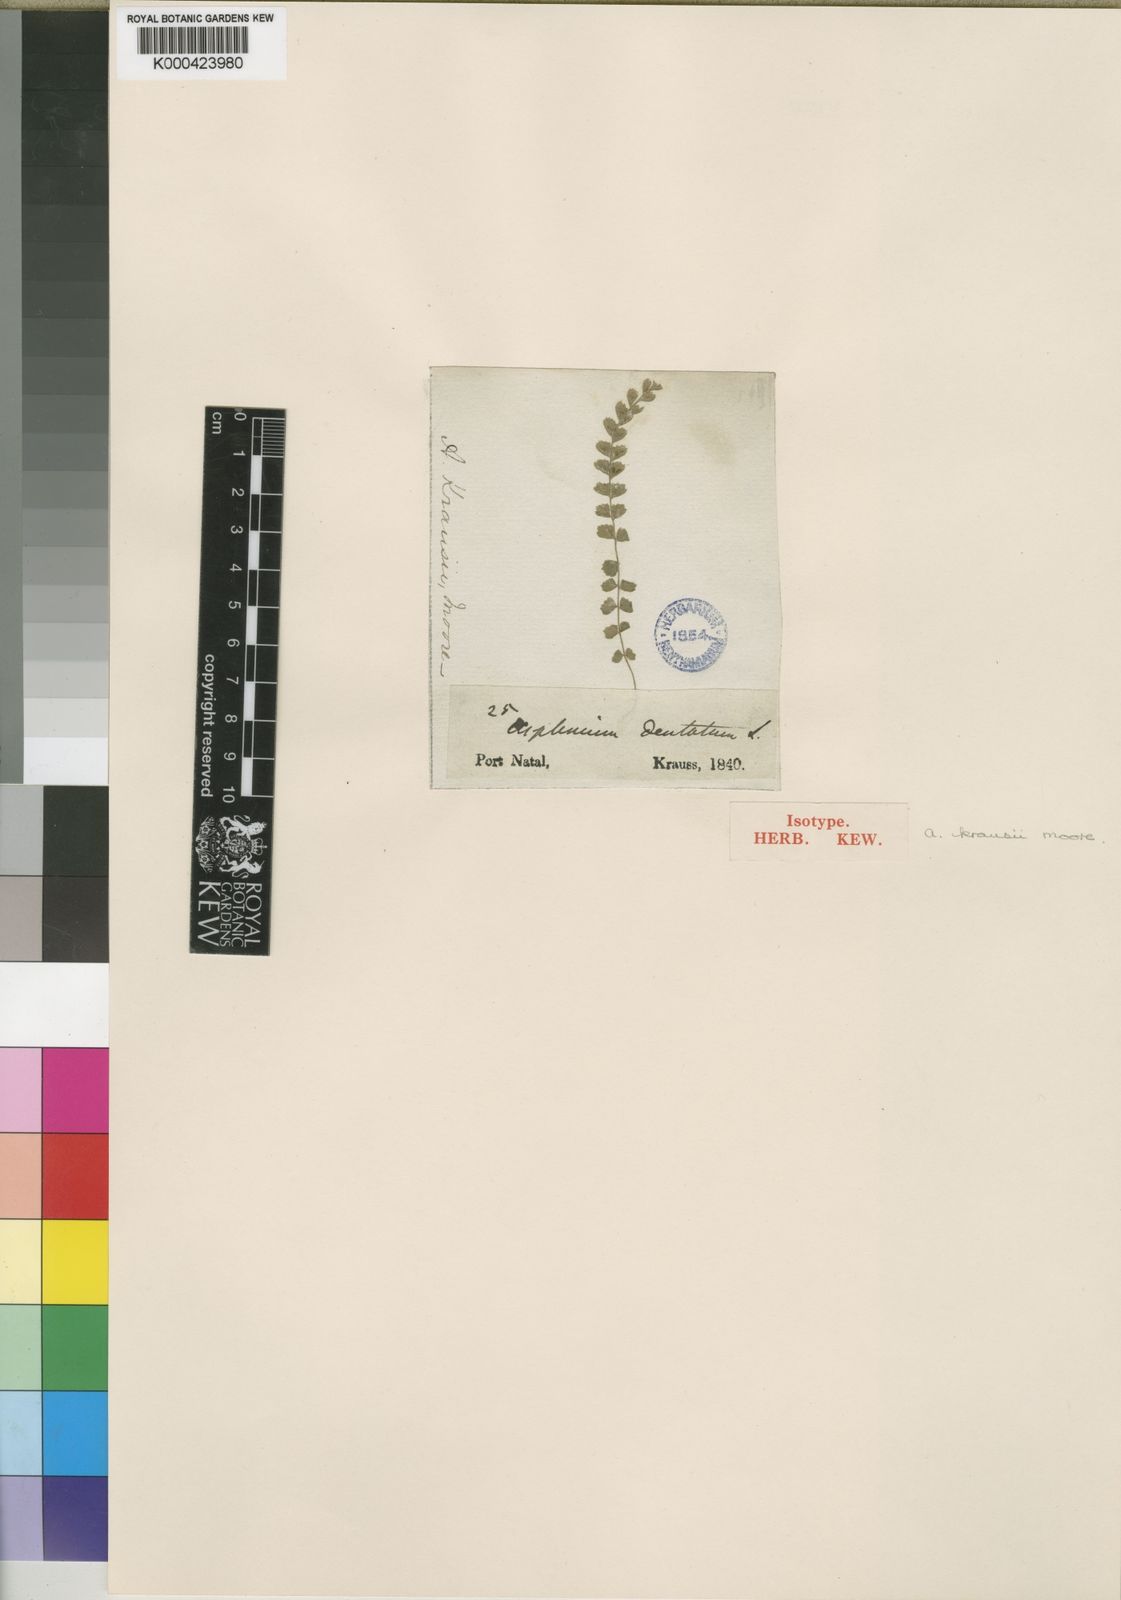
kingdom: Plantae
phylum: Tracheophyta
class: Polypodiopsida
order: Polypodiales
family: Aspleniaceae
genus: Asplenium
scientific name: Asplenium stoloniferum
